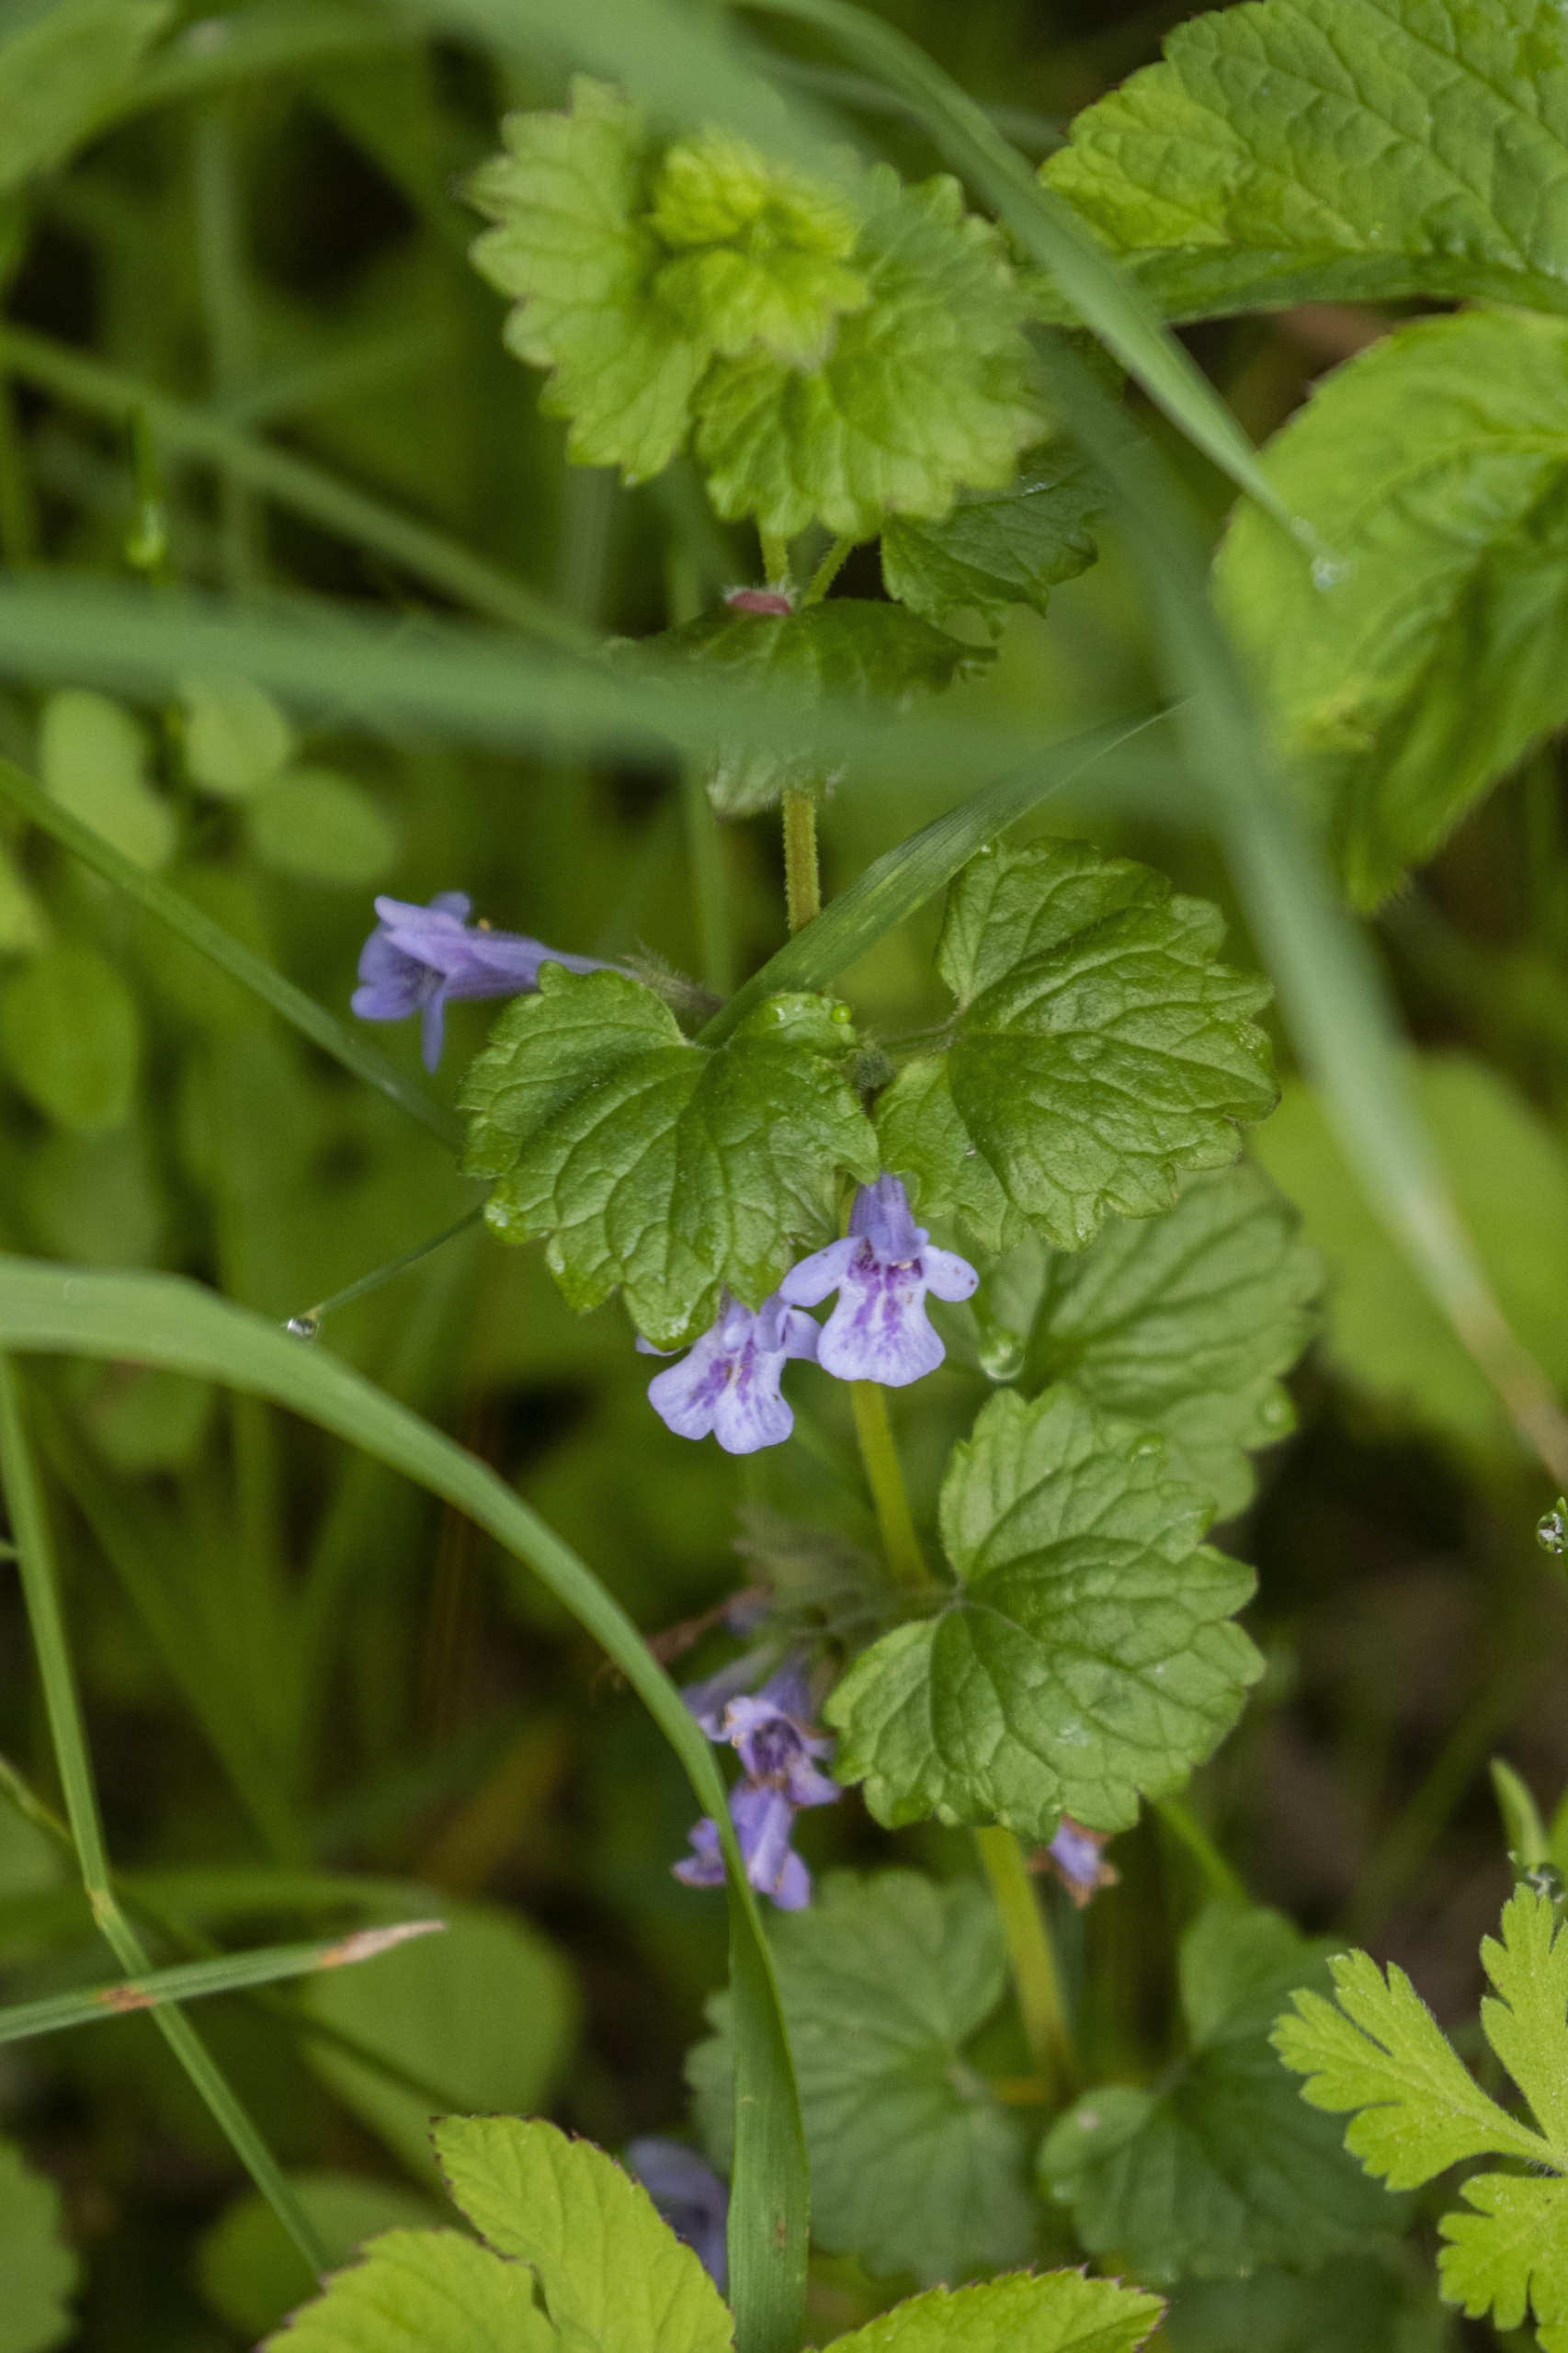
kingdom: Plantae
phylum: Tracheophyta
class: Magnoliopsida
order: Lamiales
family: Lamiaceae
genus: Glechoma
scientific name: Glechoma hederacea
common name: Korsknap
